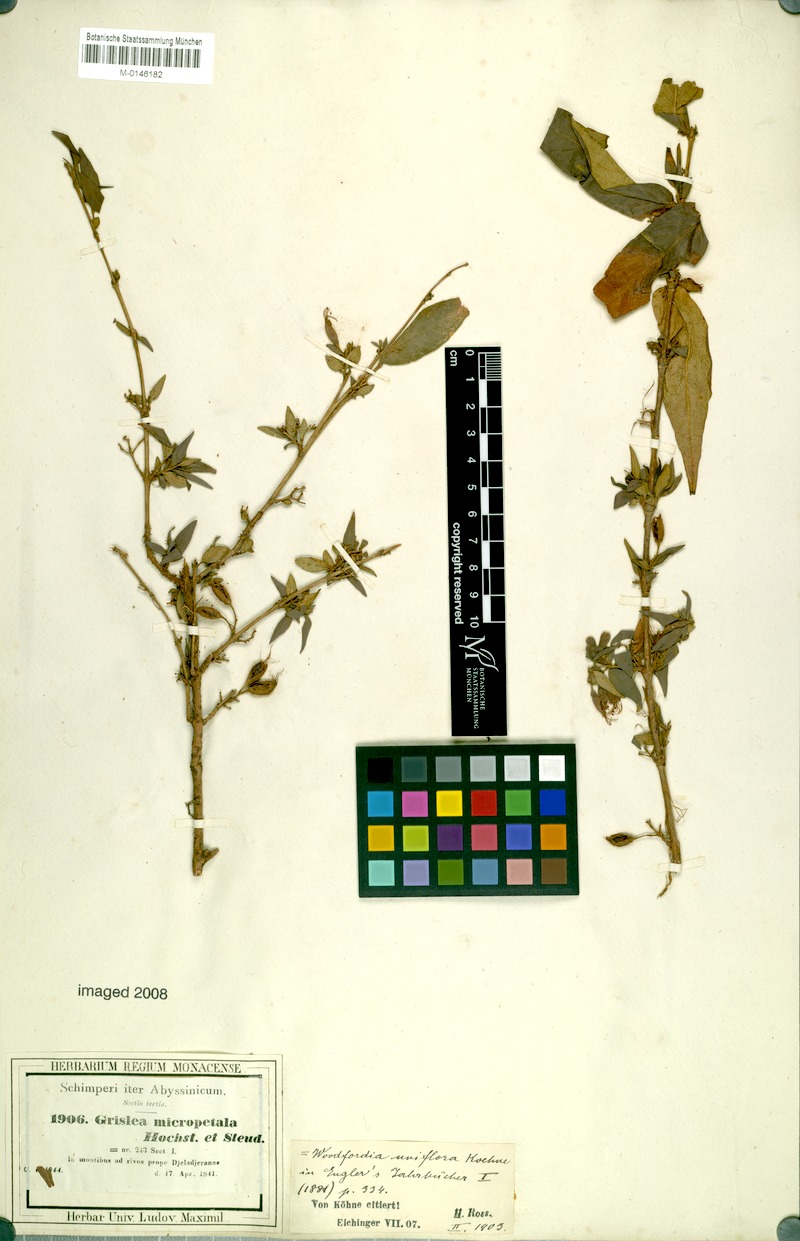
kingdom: Plantae
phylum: Tracheophyta
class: Magnoliopsida
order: Myrtales
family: Lythraceae
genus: Woodfordia
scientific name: Woodfordia uniflora
